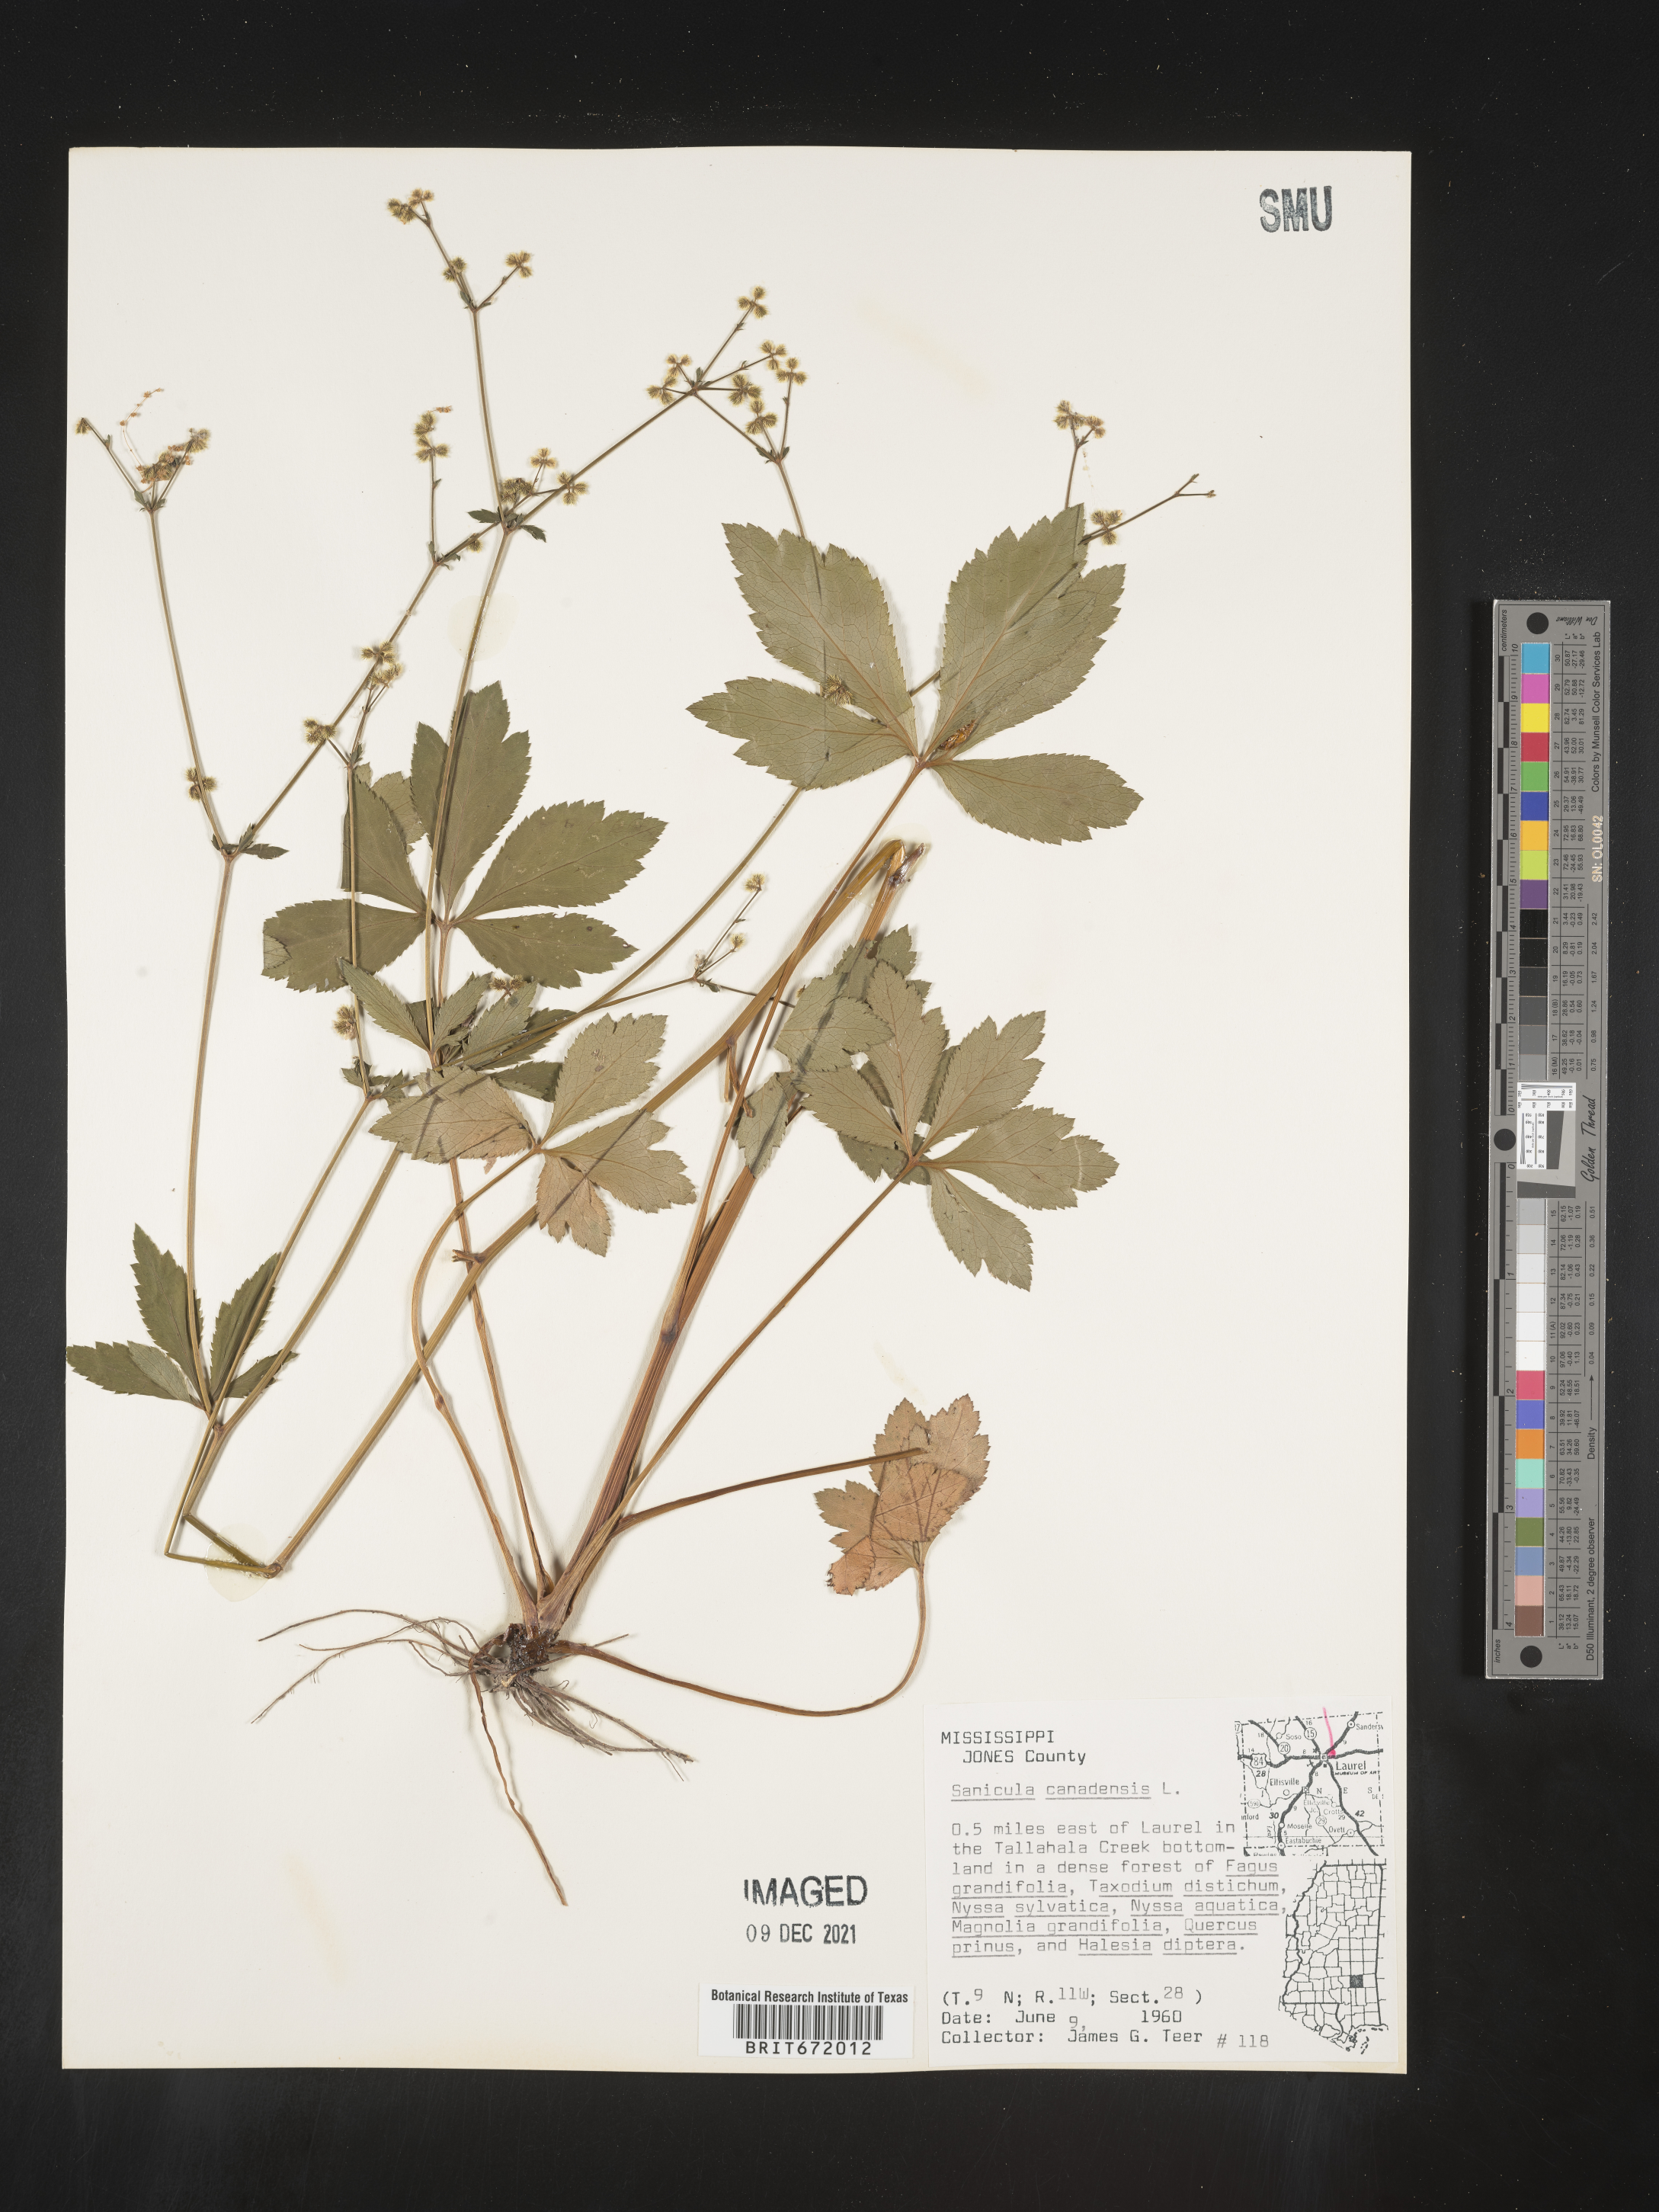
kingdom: Plantae
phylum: Tracheophyta
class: Magnoliopsida
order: Apiales
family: Apiaceae
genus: Sanicula
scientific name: Sanicula canadensis
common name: Canada sanicle
